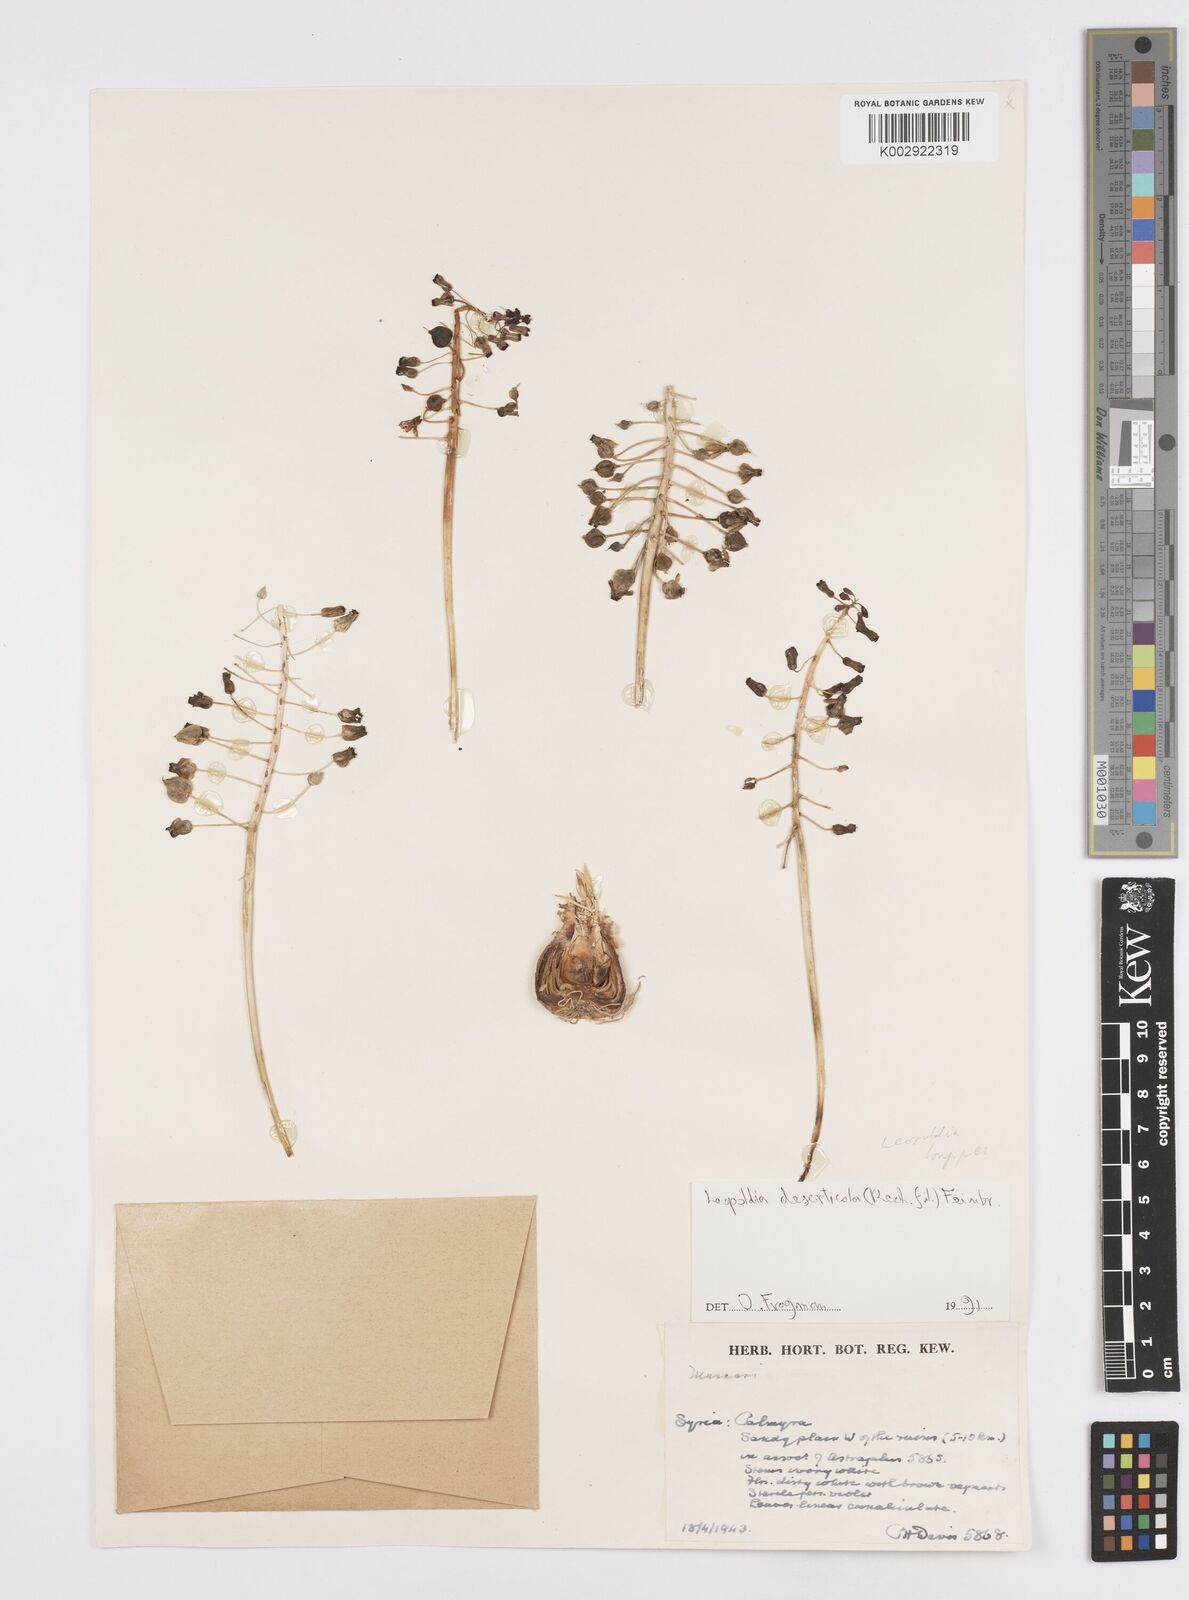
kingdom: Plantae
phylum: Tracheophyta
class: Liliopsida
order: Asparagales
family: Asparagaceae
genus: Muscari
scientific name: Muscari longipes
